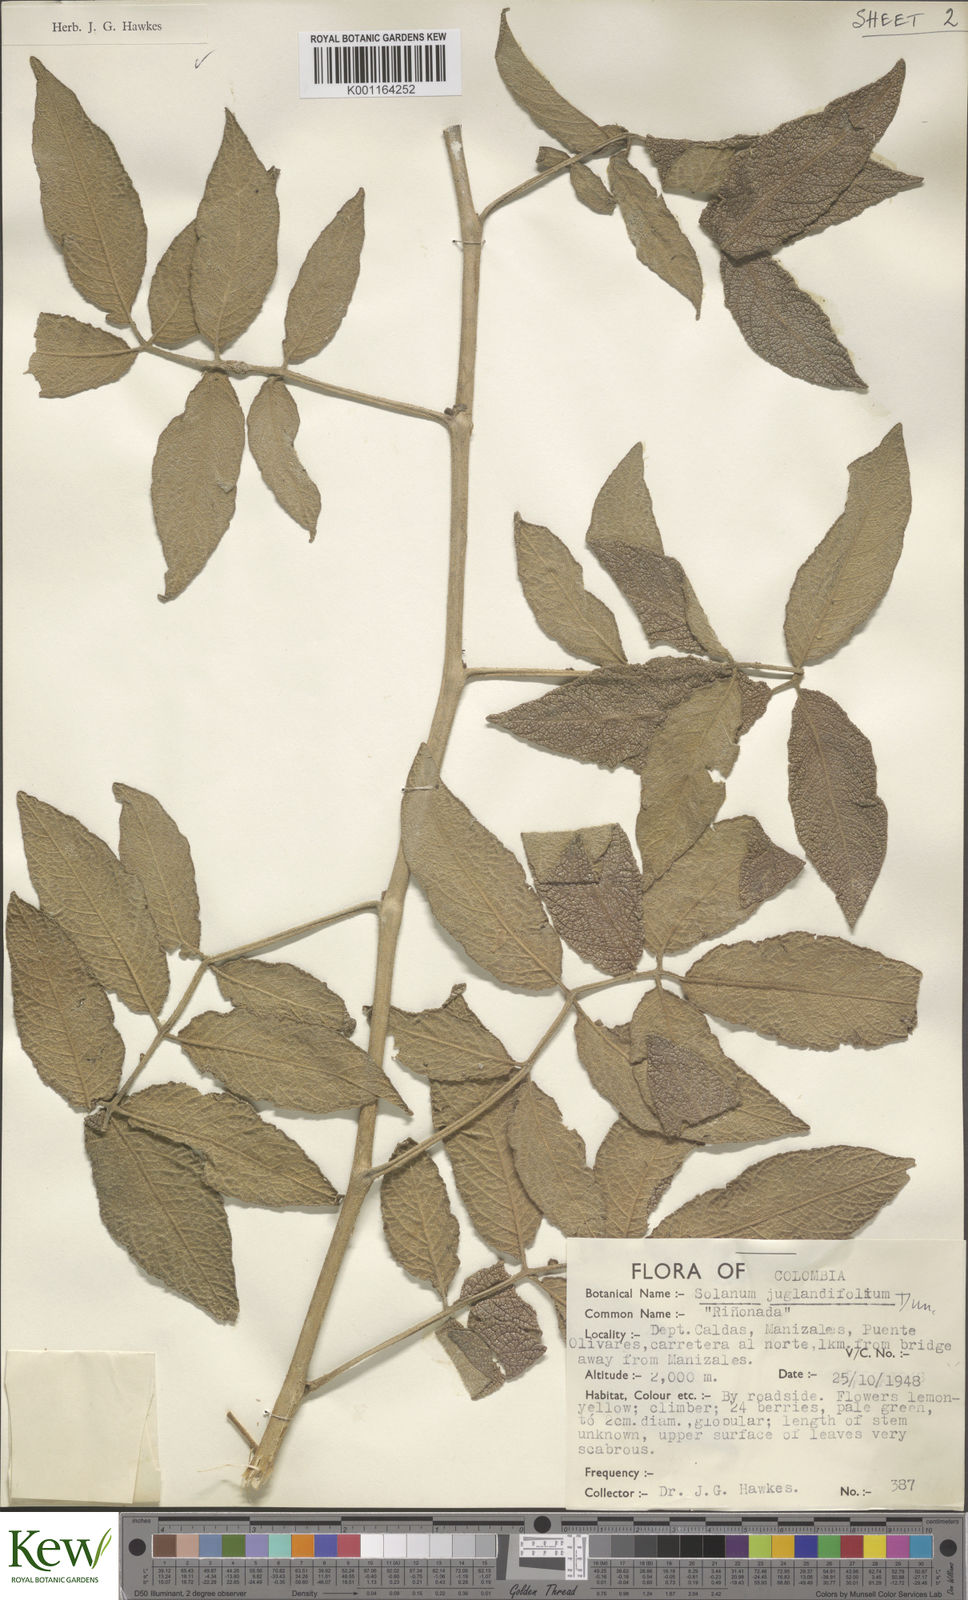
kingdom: Plantae
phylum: Tracheophyta
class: Magnoliopsida
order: Solanales
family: Solanaceae
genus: Solanum
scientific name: Solanum juglandifolium
